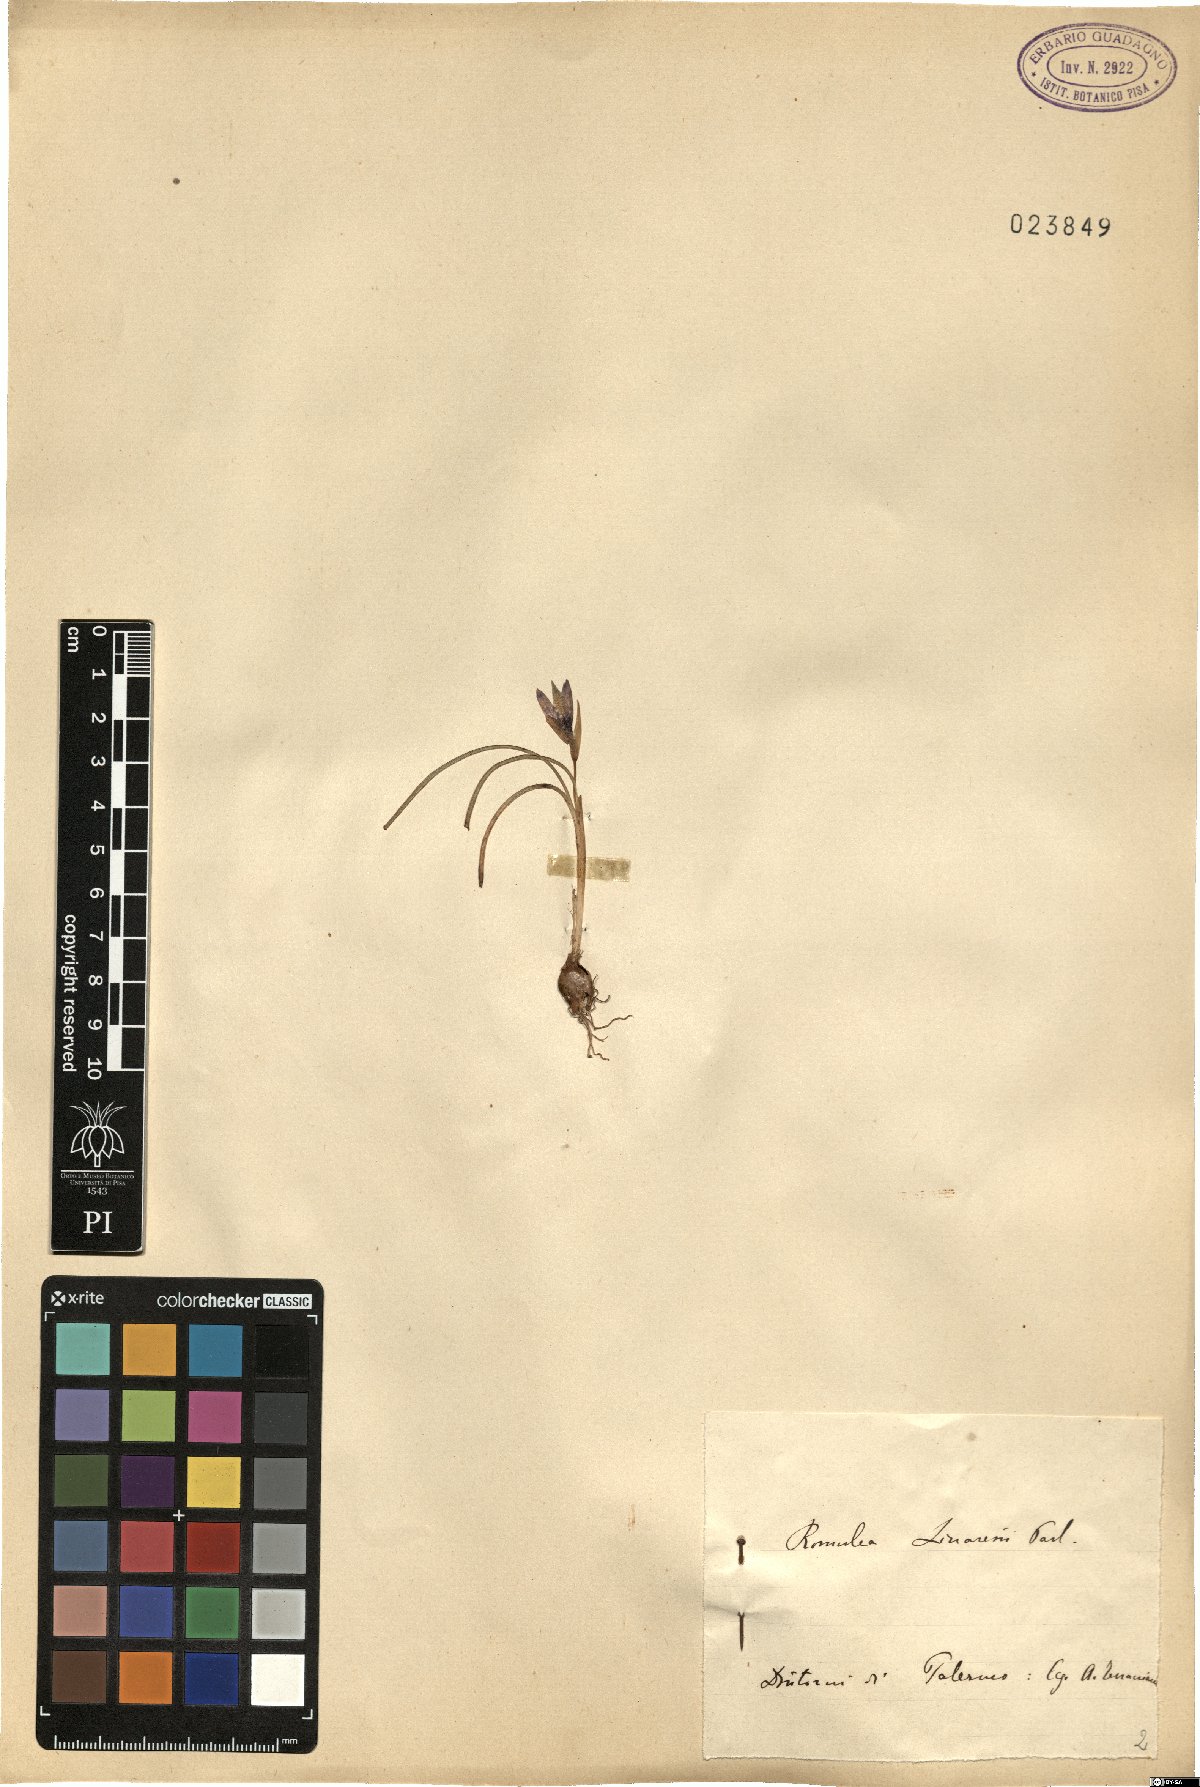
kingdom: Plantae
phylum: Tracheophyta
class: Liliopsida
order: Asparagales
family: Iridaceae
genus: Romulea
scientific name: Romulea linaresii
